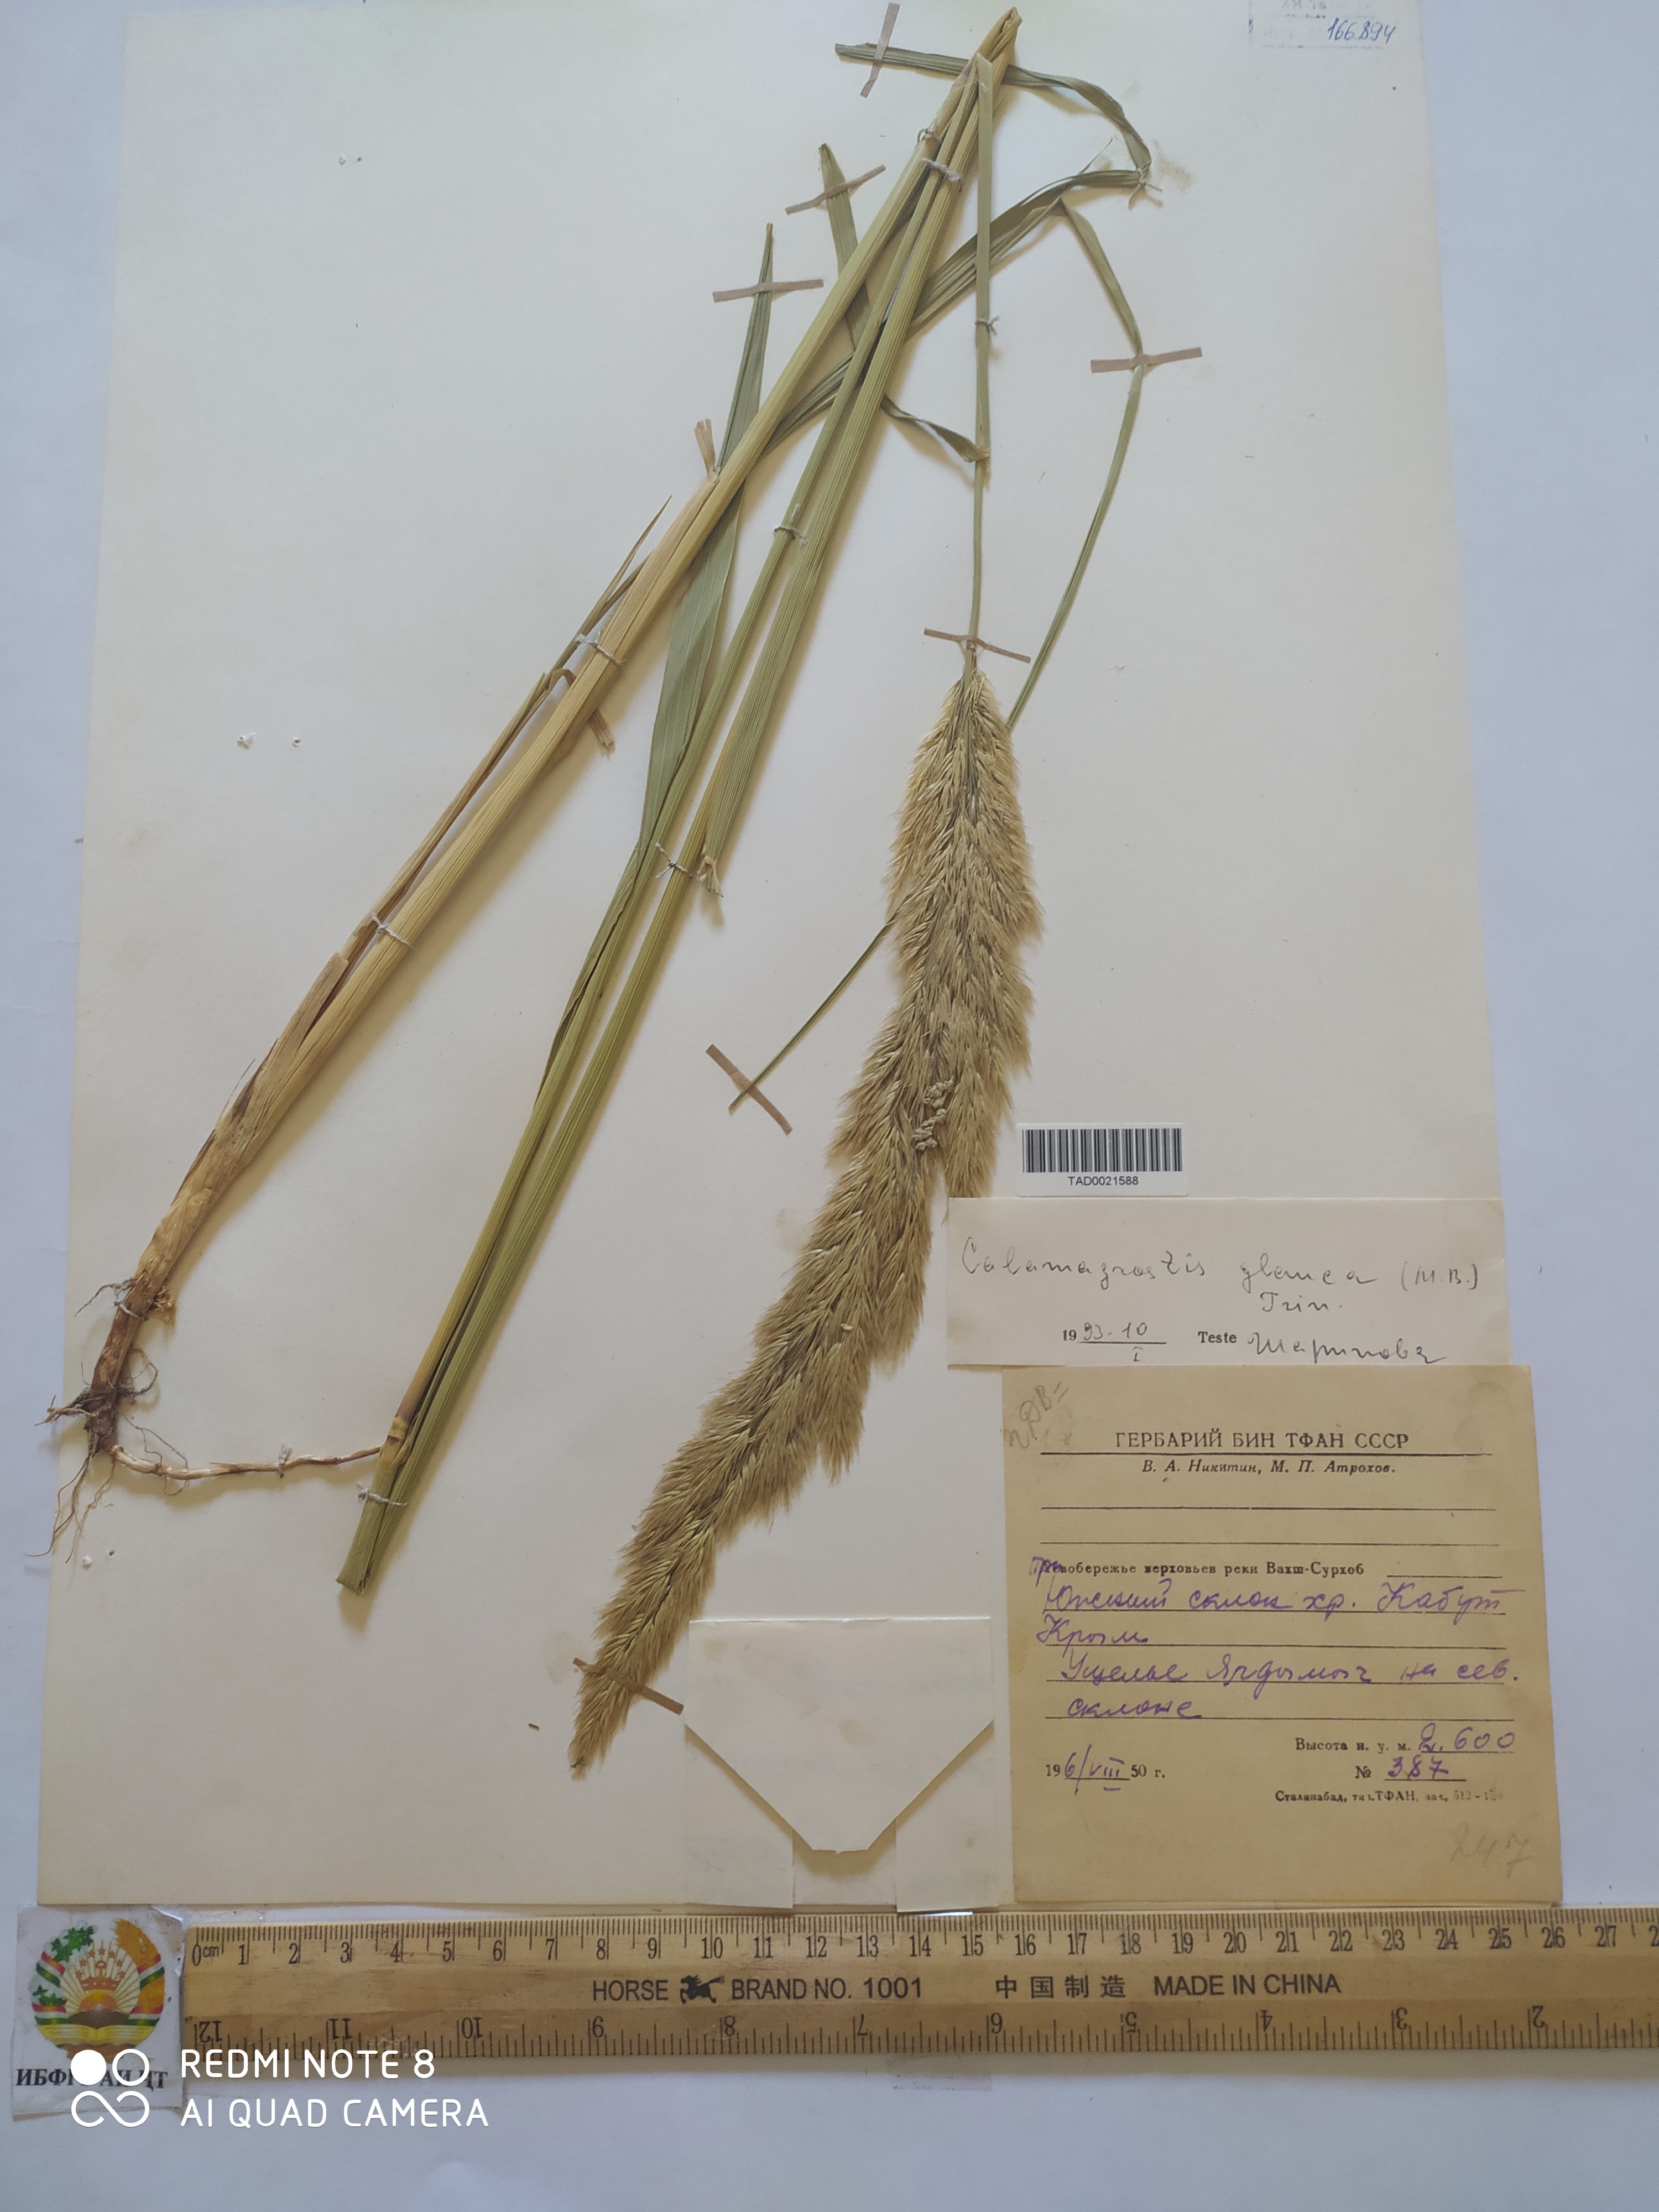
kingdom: Plantae
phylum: Tracheophyta
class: Liliopsida
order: Poales
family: Poaceae
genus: Calamagrostis
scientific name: Calamagrostis pseudophragmites
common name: Coastal small-reed
